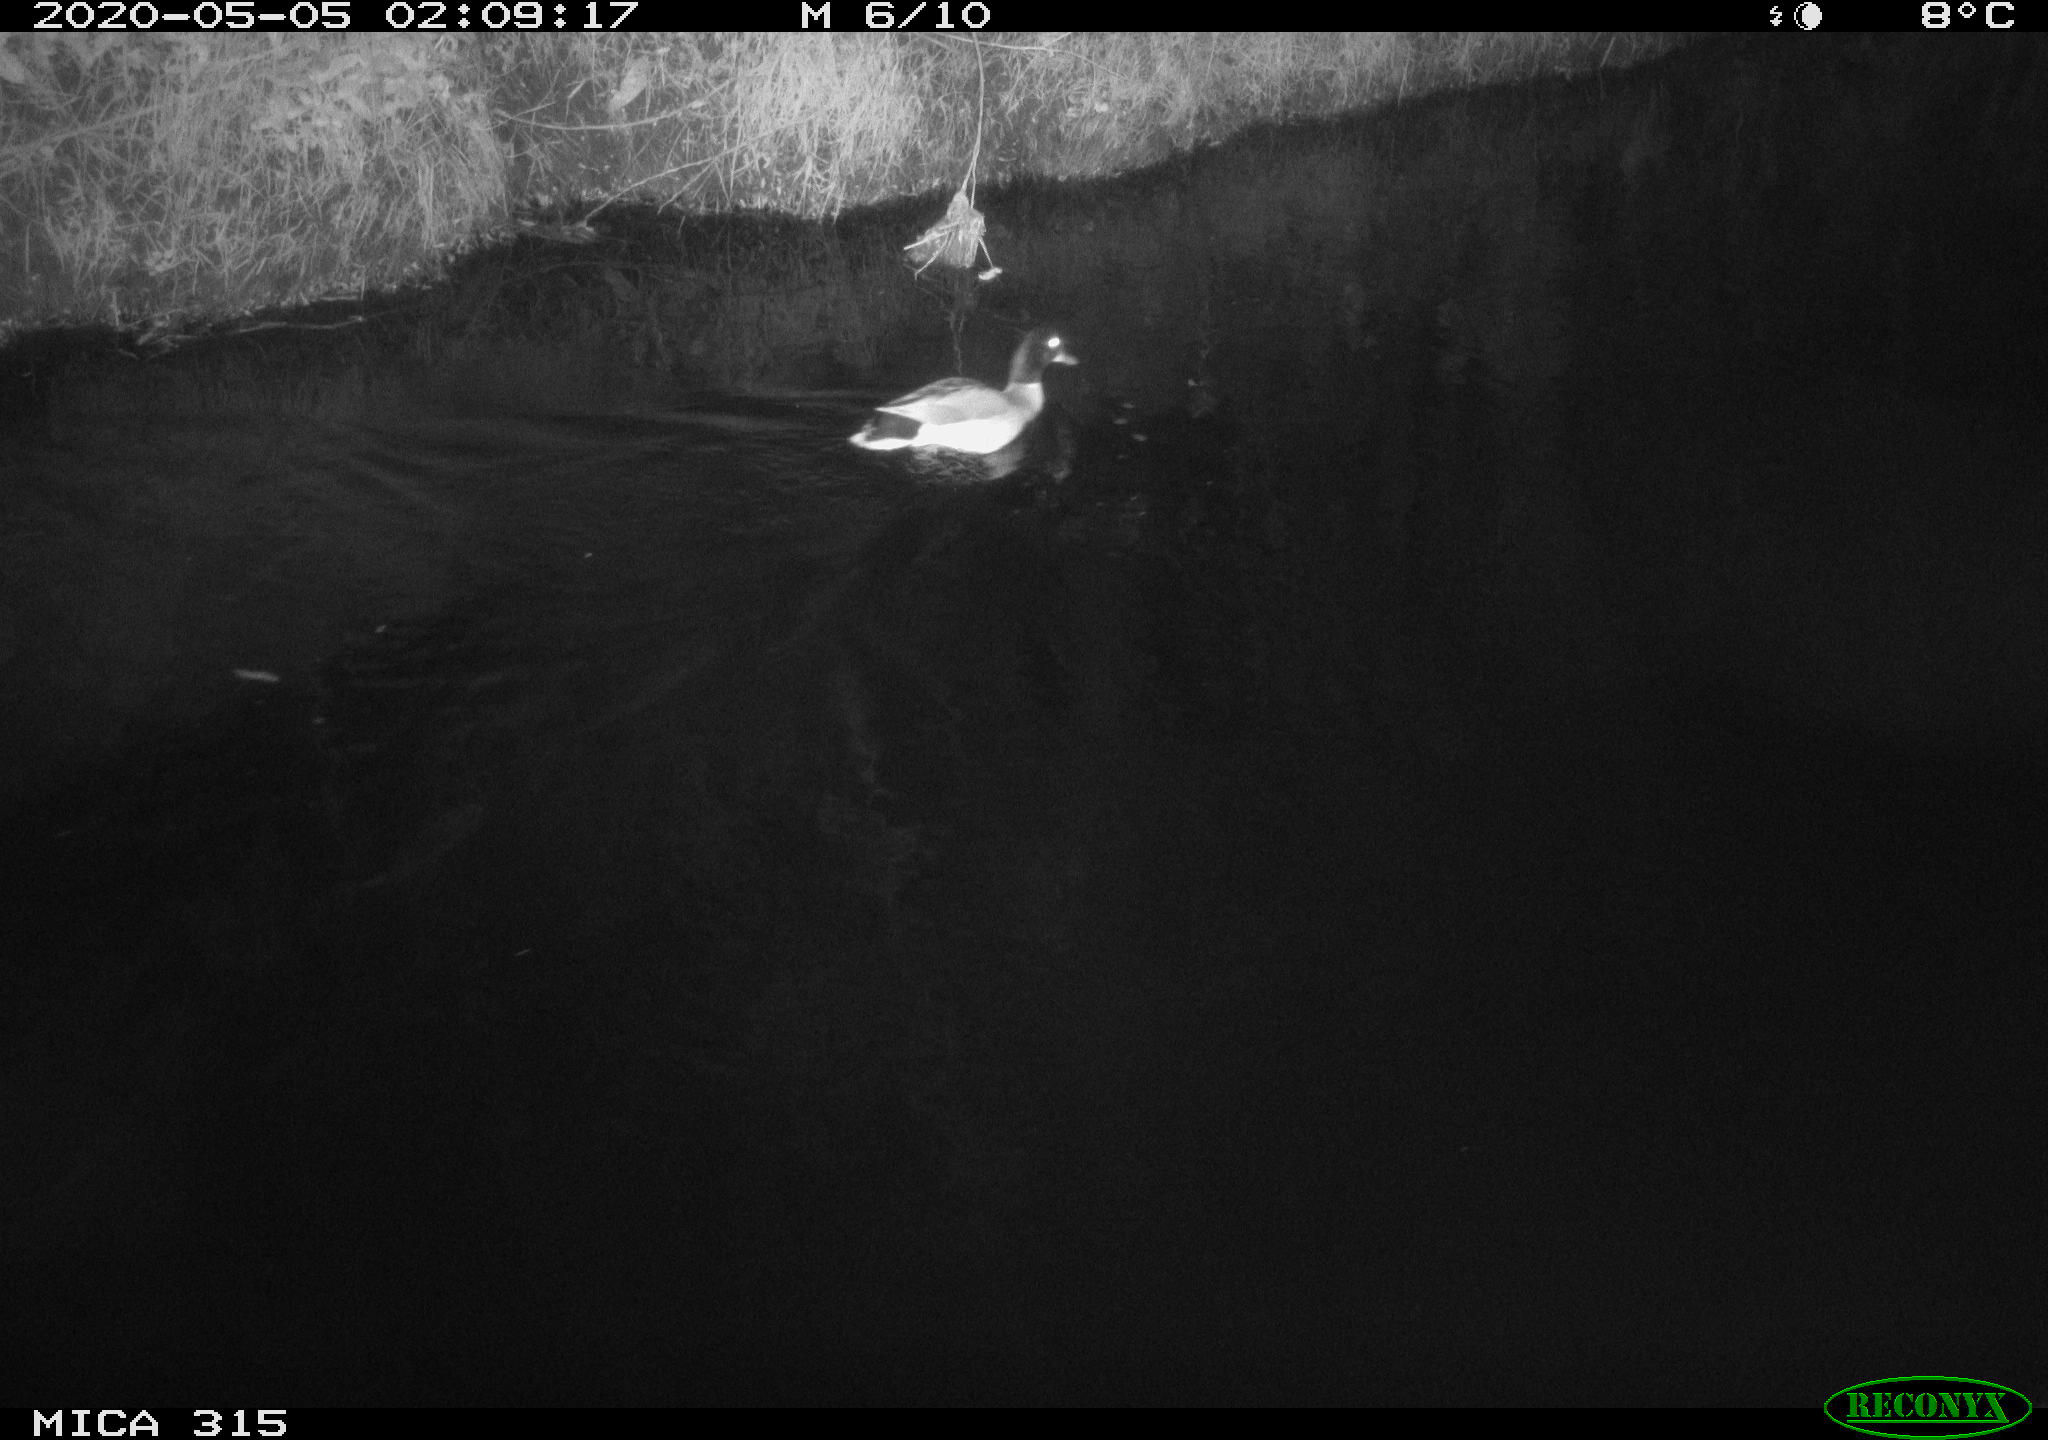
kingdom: Animalia
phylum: Chordata
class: Aves
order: Anseriformes
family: Anatidae
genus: Anas
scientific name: Anas platyrhynchos
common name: Mallard
